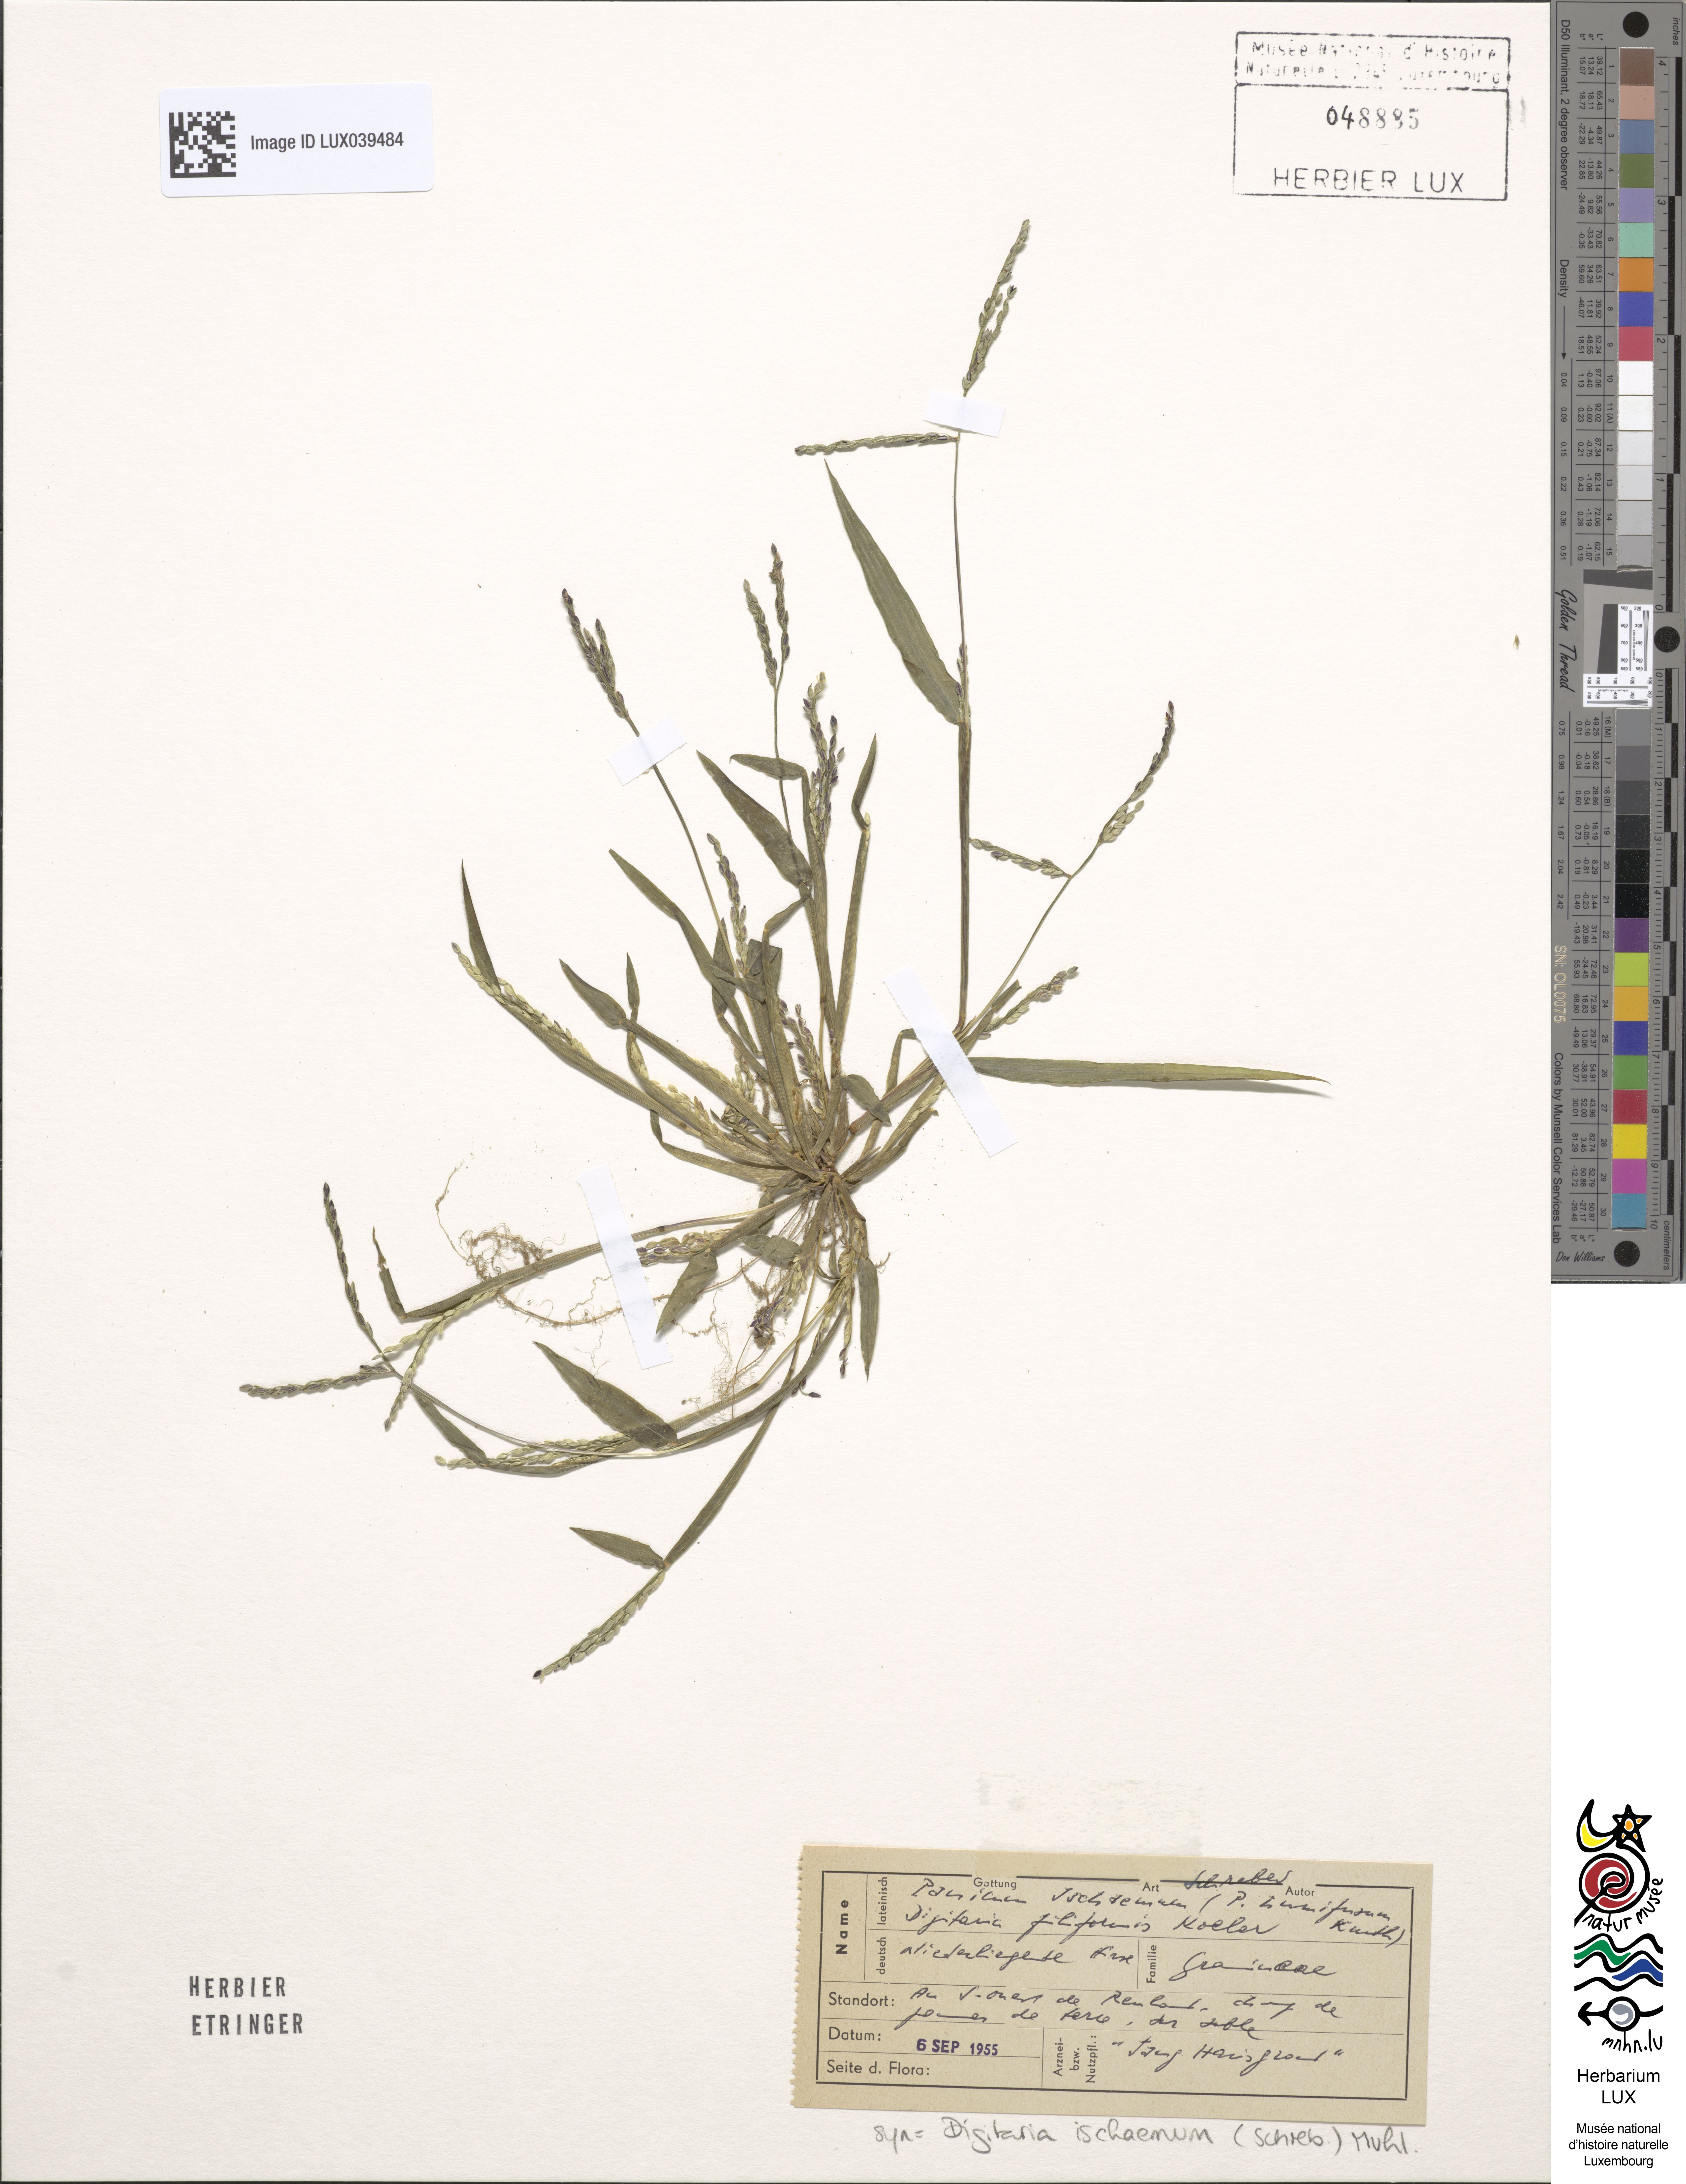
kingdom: Plantae
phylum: Tracheophyta
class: Liliopsida
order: Poales
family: Poaceae
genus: Digitaria
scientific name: Digitaria ischaemum
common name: Smooth crabgrass
